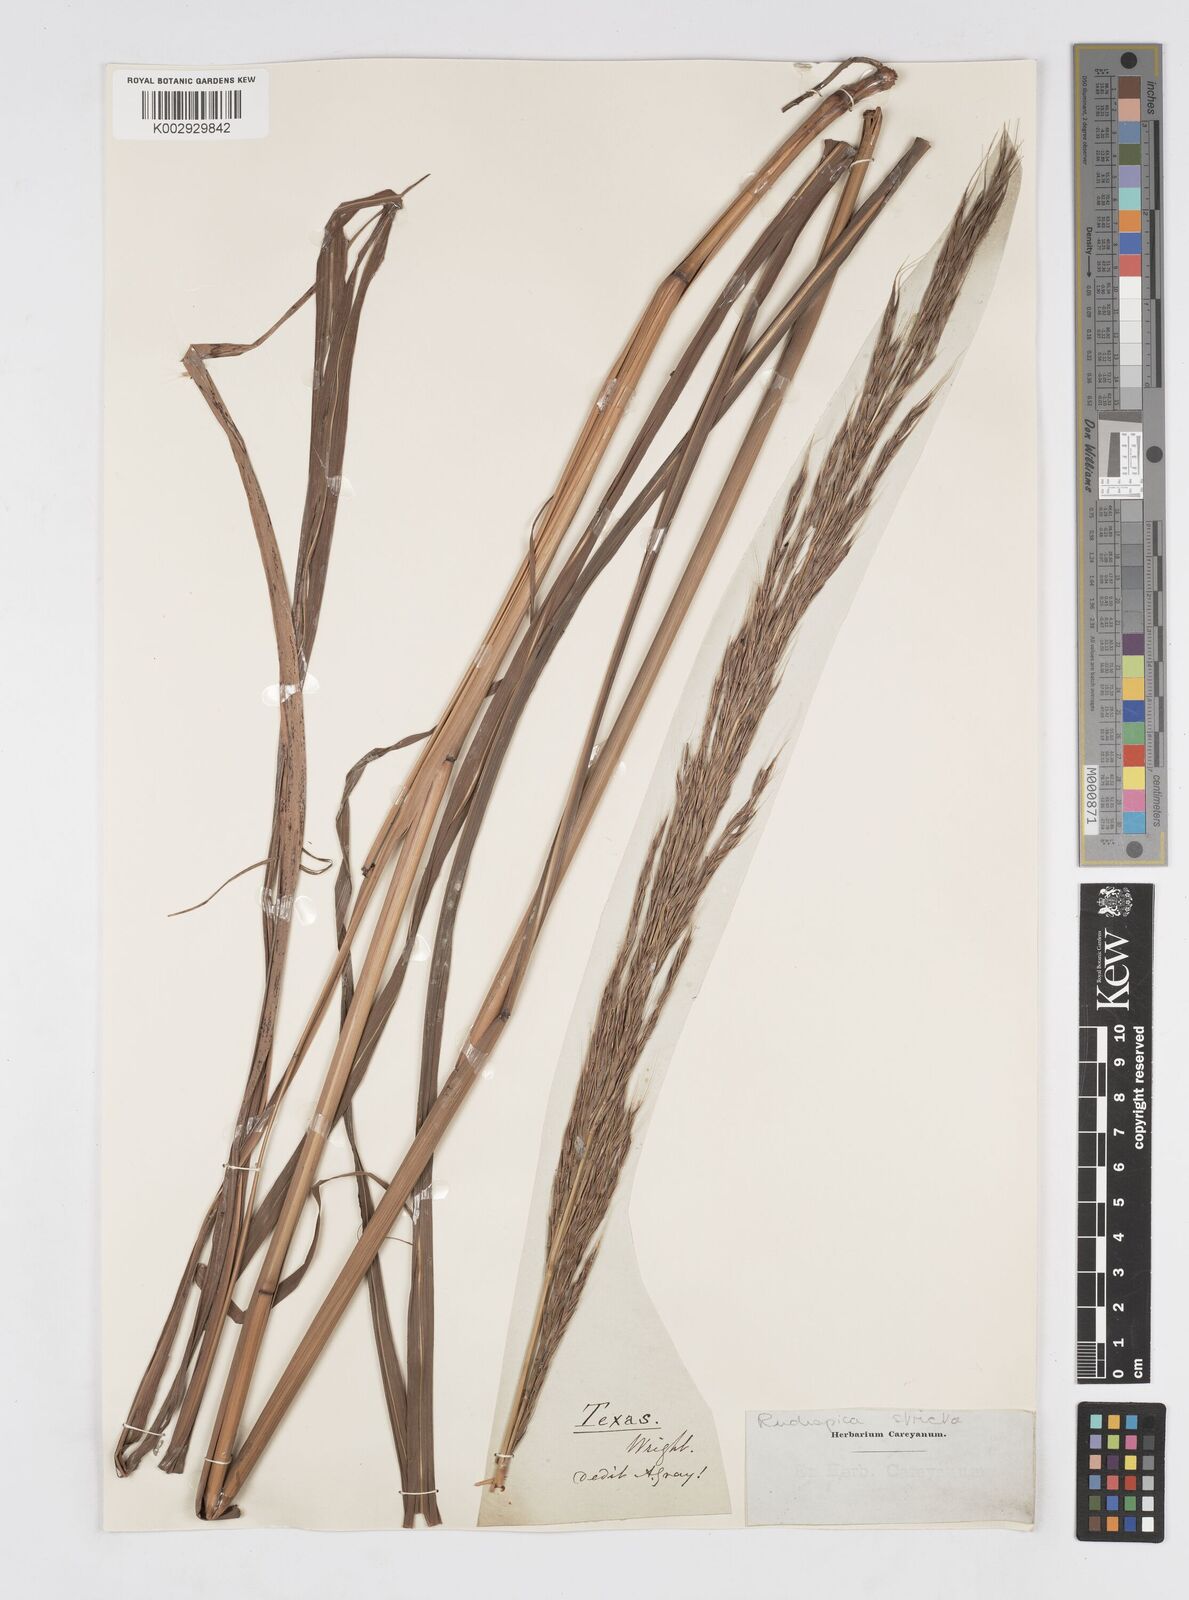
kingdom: Plantae
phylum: Tracheophyta
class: Liliopsida
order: Poales
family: Poaceae
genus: Erianthus
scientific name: Erianthus strictus
